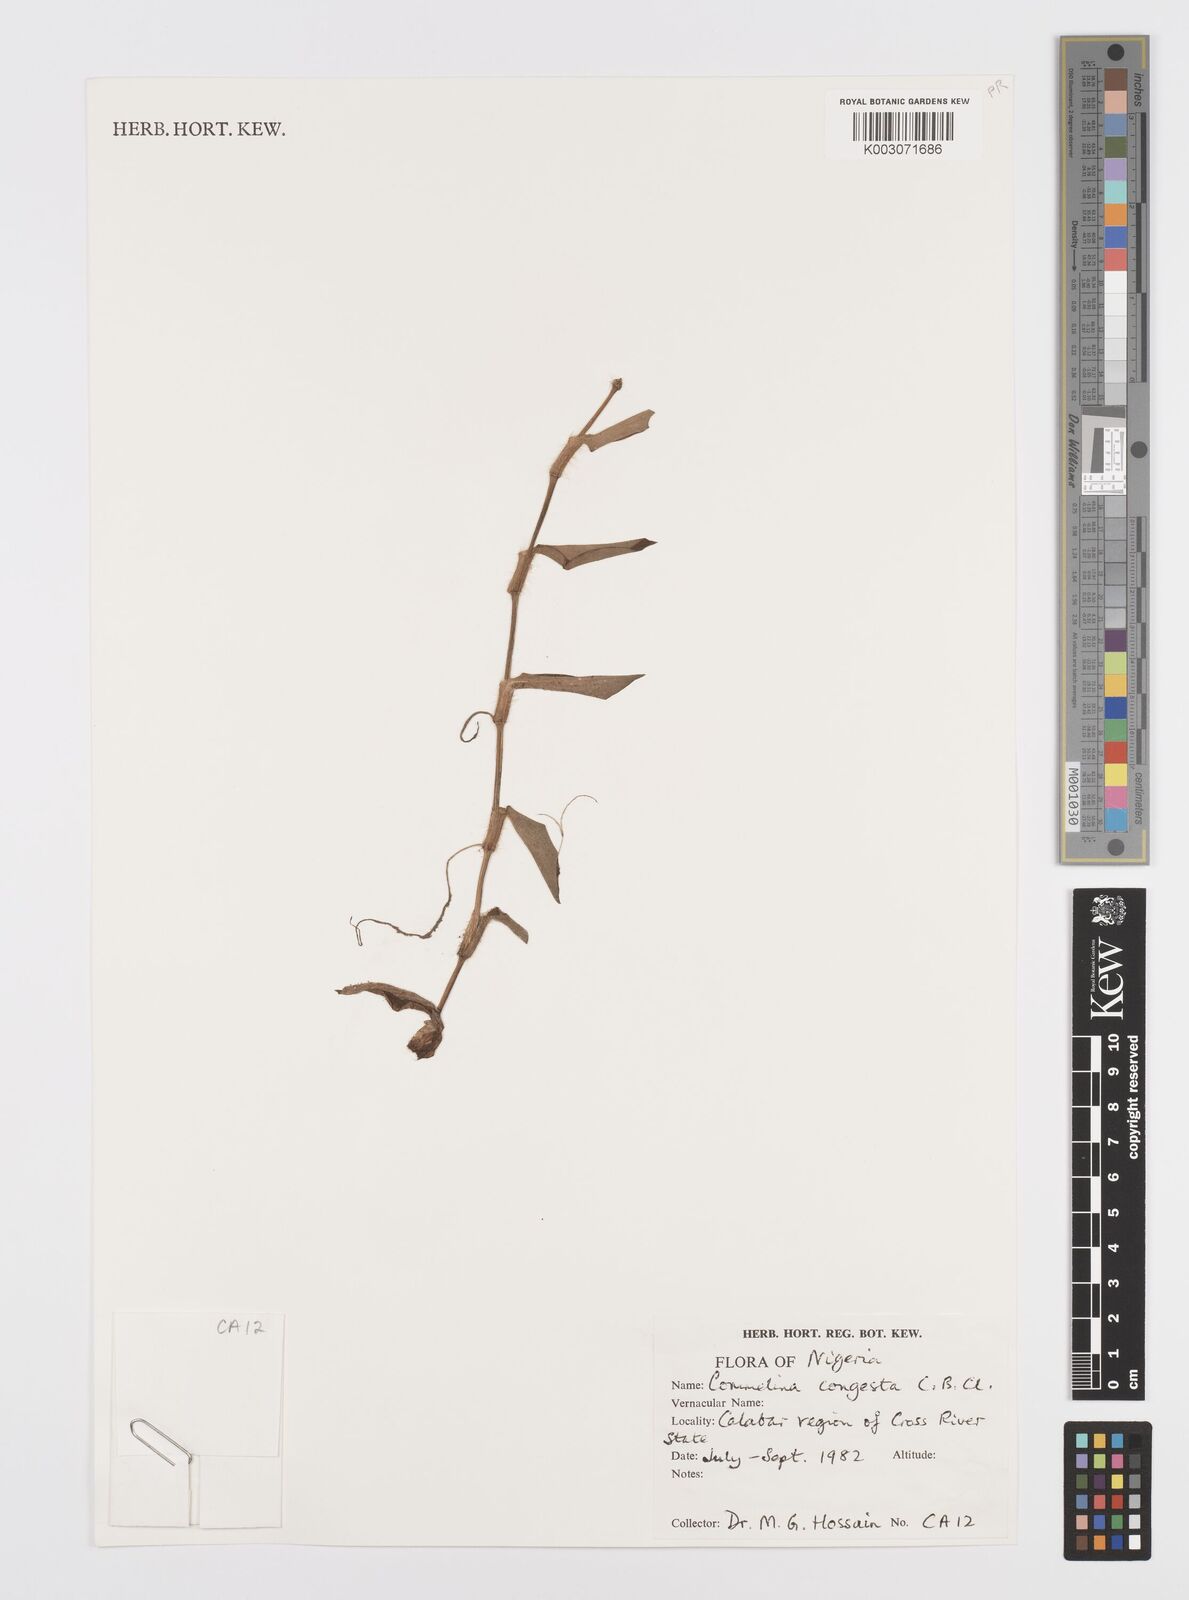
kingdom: Plantae
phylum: Tracheophyta
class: Liliopsida
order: Commelinales
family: Commelinaceae
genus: Commelina
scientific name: Commelina congesta
